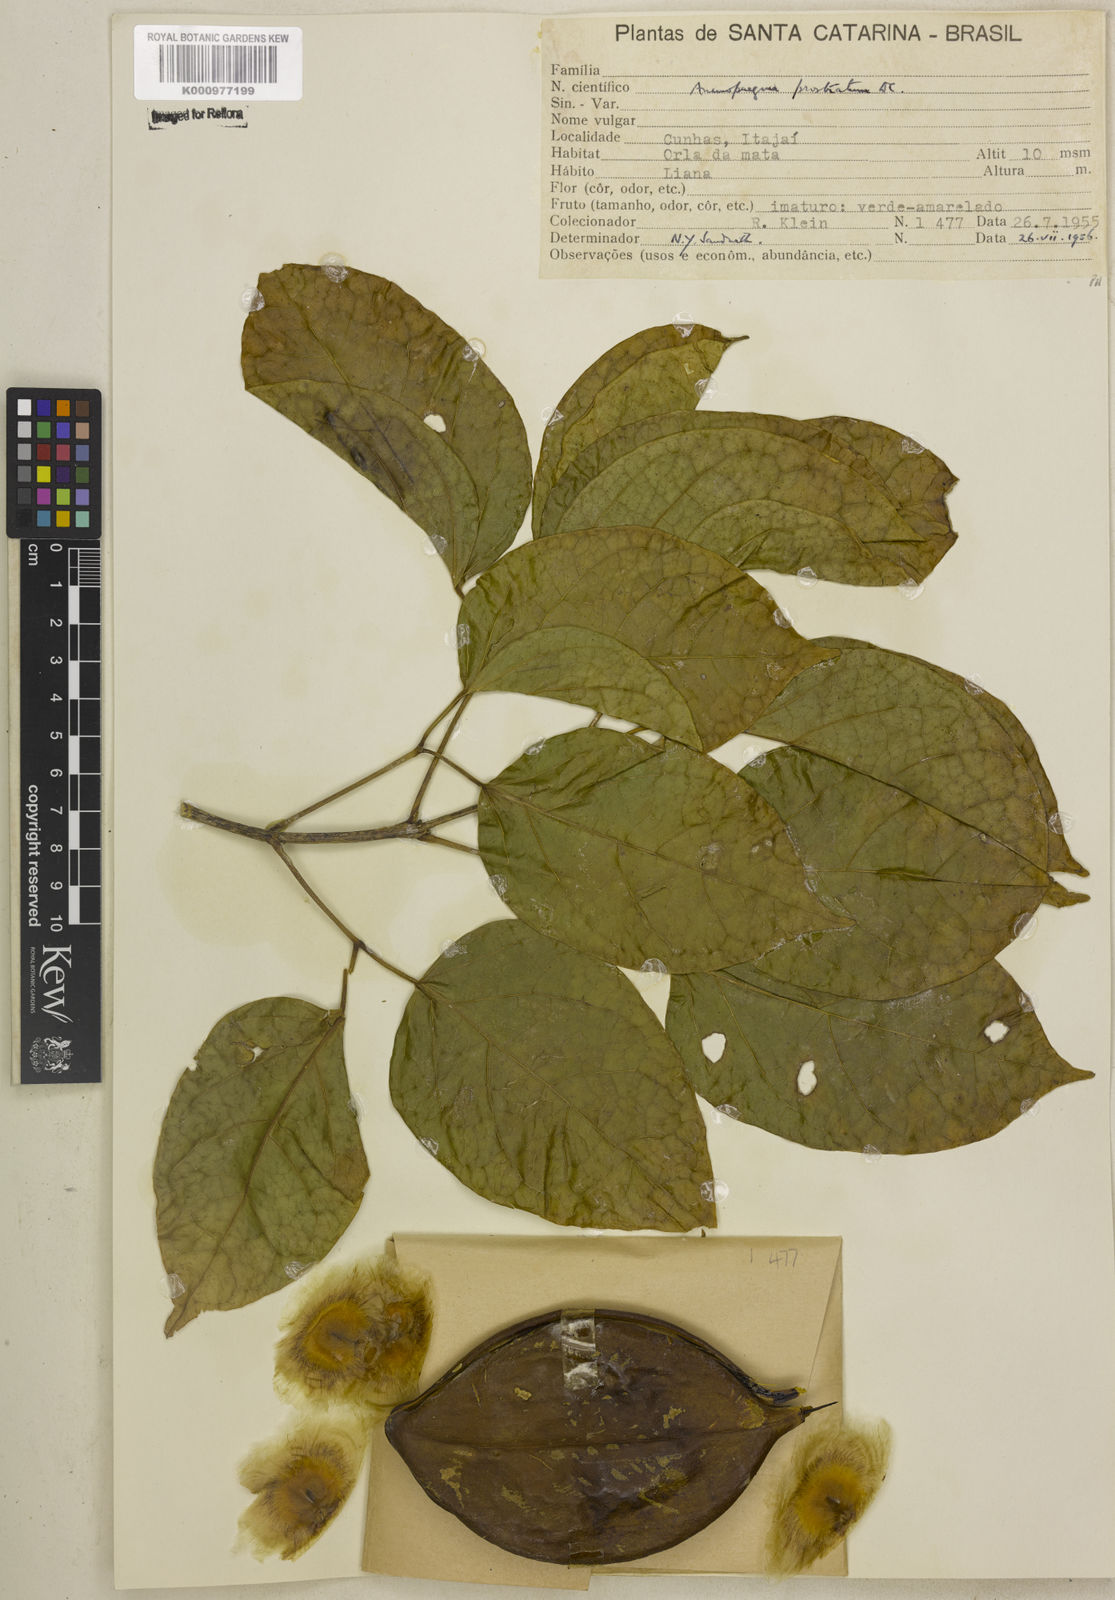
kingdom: Plantae
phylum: Tracheophyta
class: Magnoliopsida
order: Lamiales
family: Bignoniaceae
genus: Anemopaegma
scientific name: Anemopaegma prostratum
